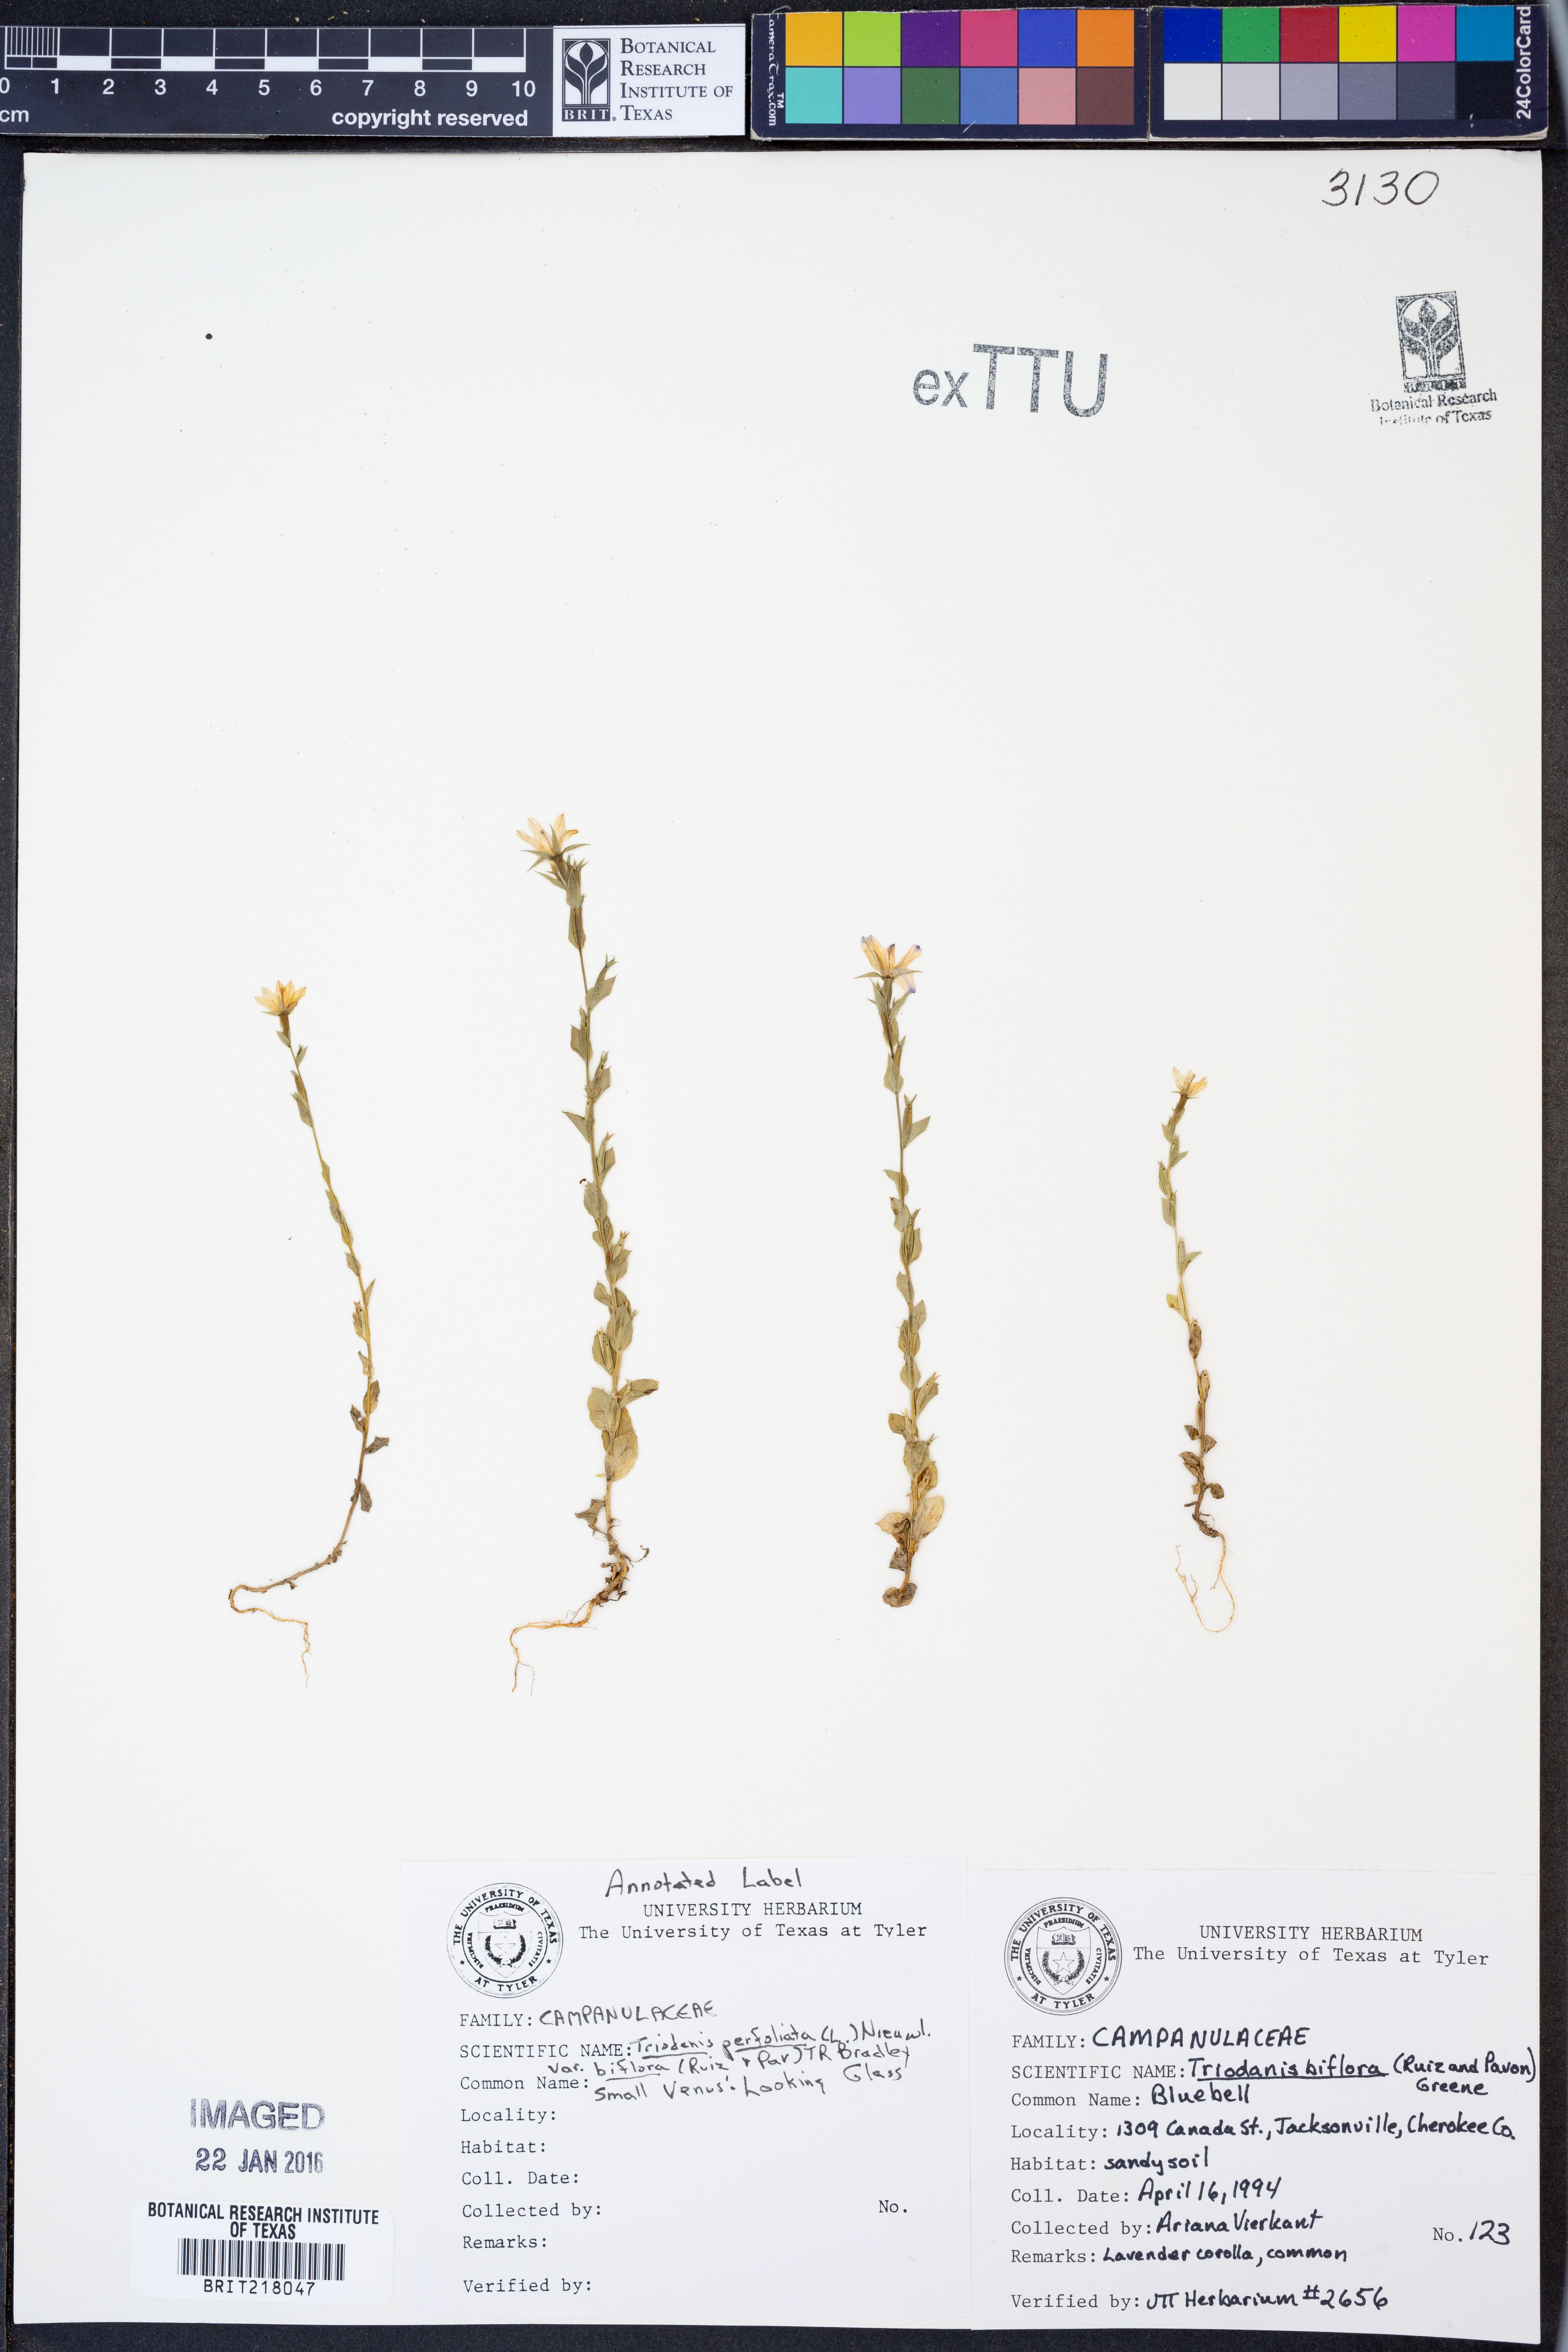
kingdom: Plantae
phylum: Tracheophyta
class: Magnoliopsida
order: Asterales
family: Campanulaceae
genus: Triodanis
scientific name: Triodanis perfoliata
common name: Clasping venus' looking-glass
